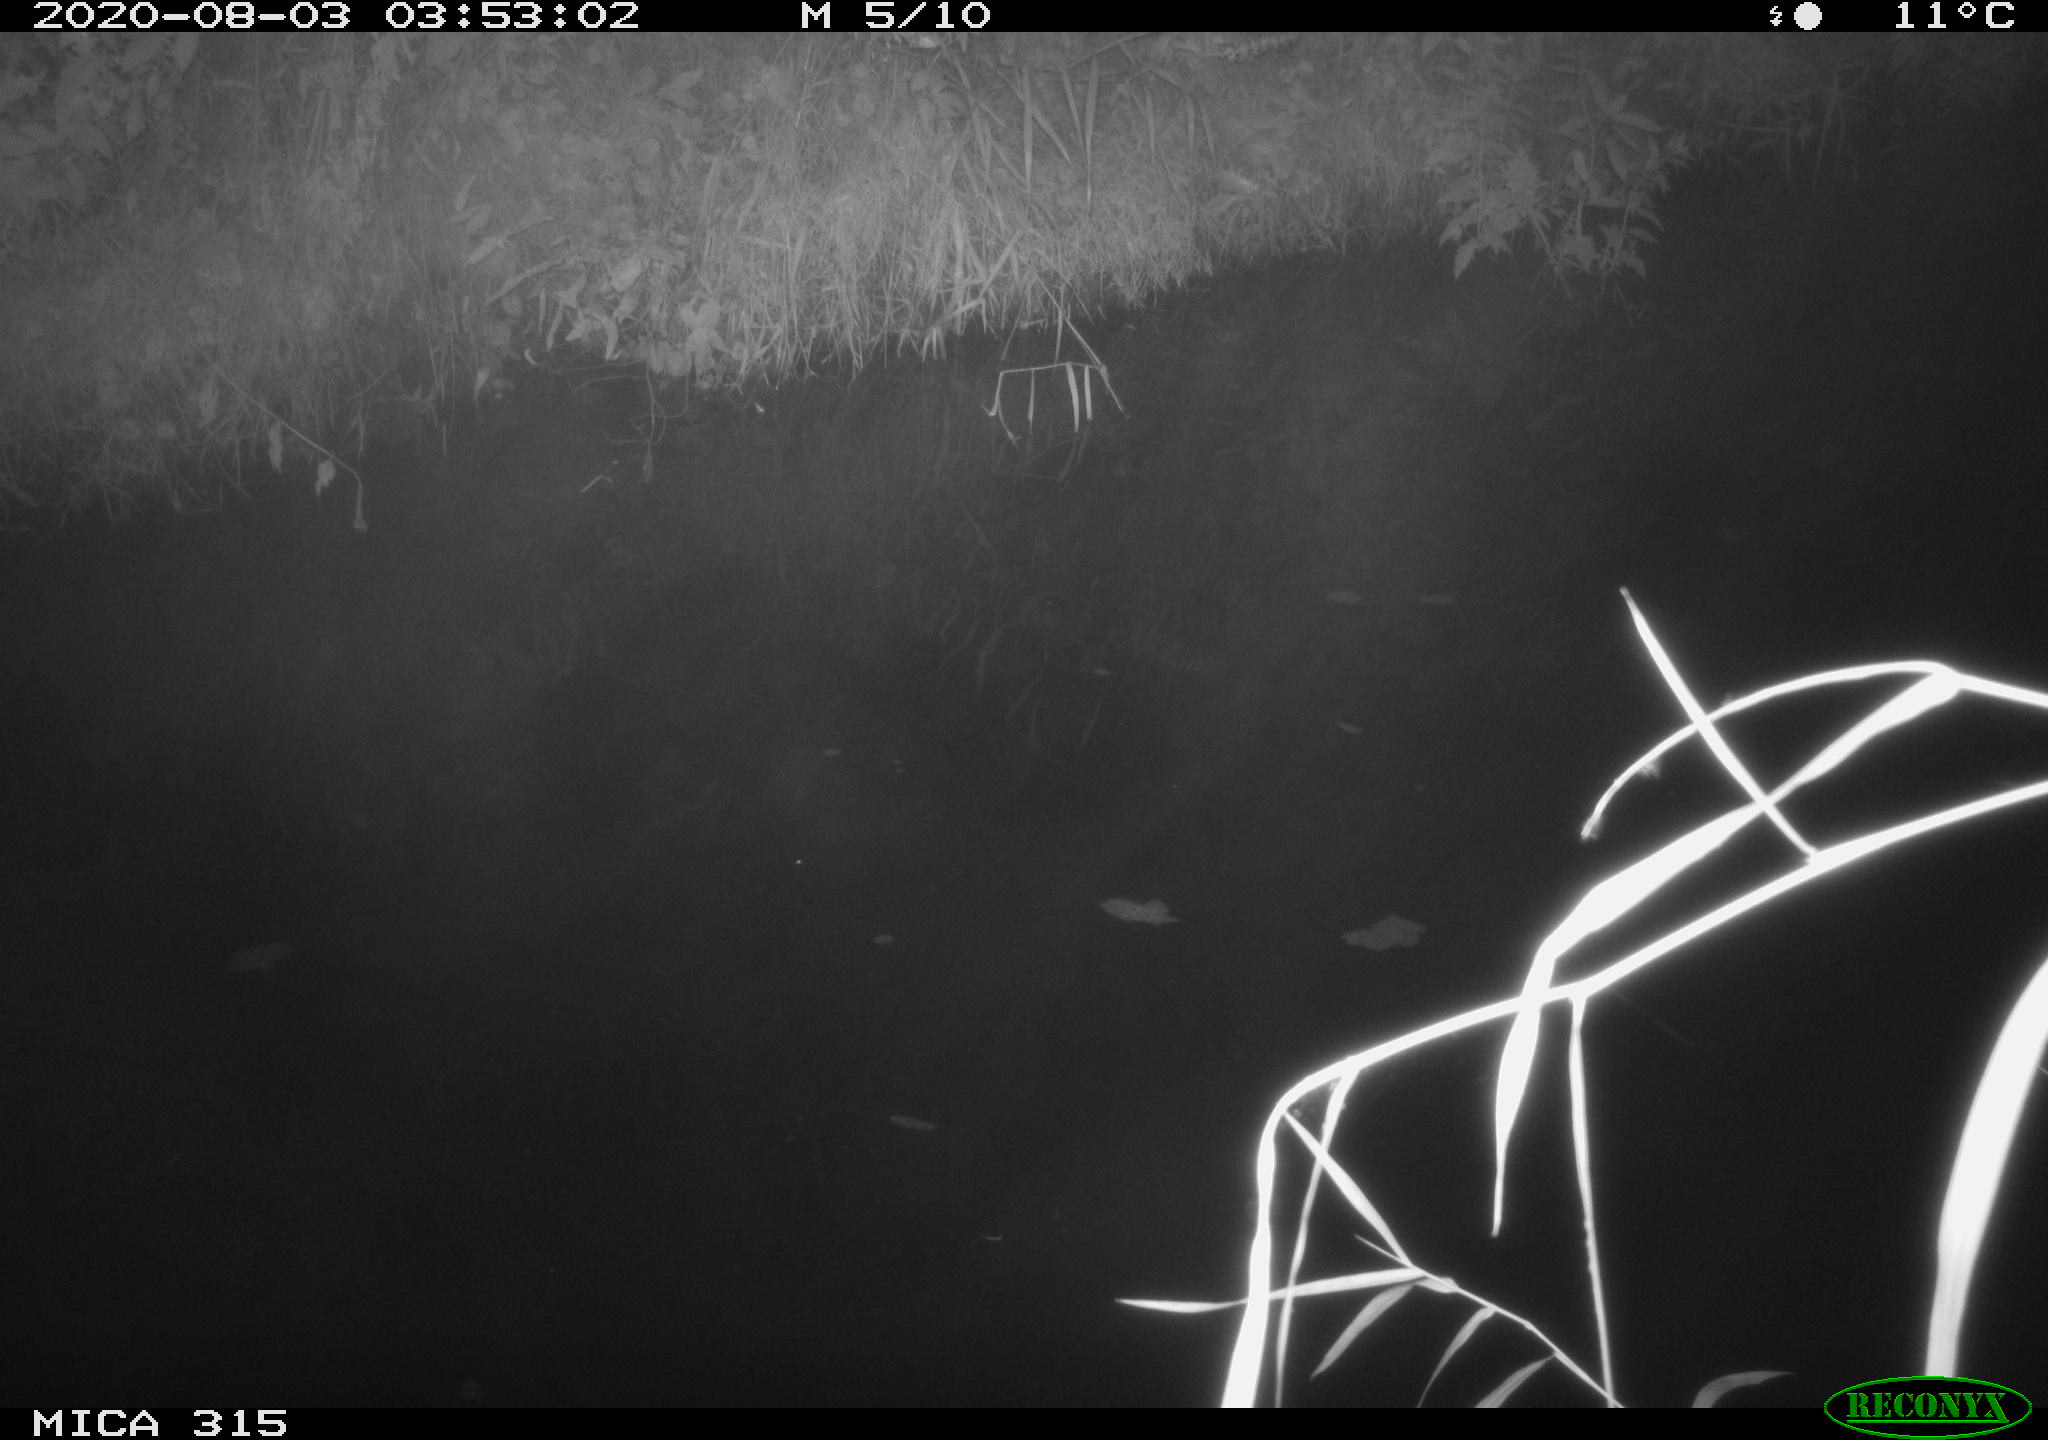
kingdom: Animalia
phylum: Chordata
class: Aves
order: Anseriformes
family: Anatidae
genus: Anas
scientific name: Anas platyrhynchos
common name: Mallard
